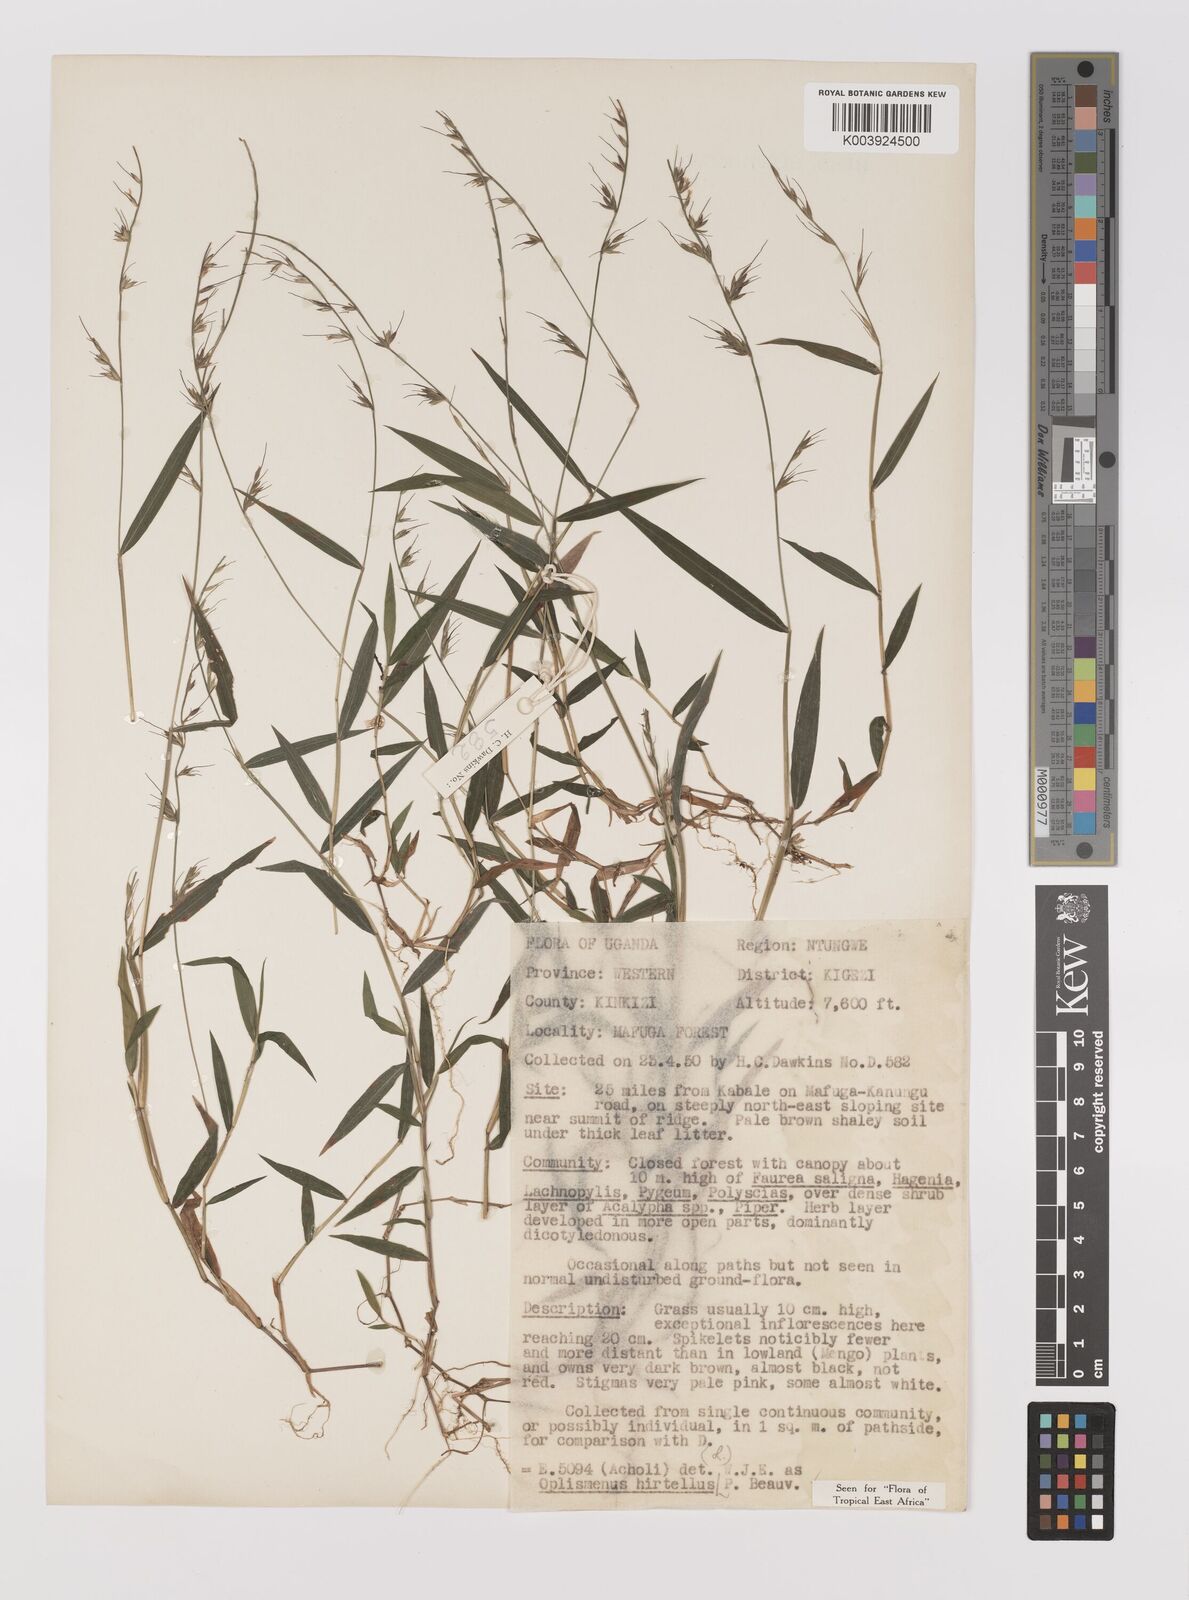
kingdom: Plantae
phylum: Tracheophyta
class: Liliopsida
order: Poales
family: Poaceae
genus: Oplismenus
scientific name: Oplismenus hirtellus
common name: Basketgrass
